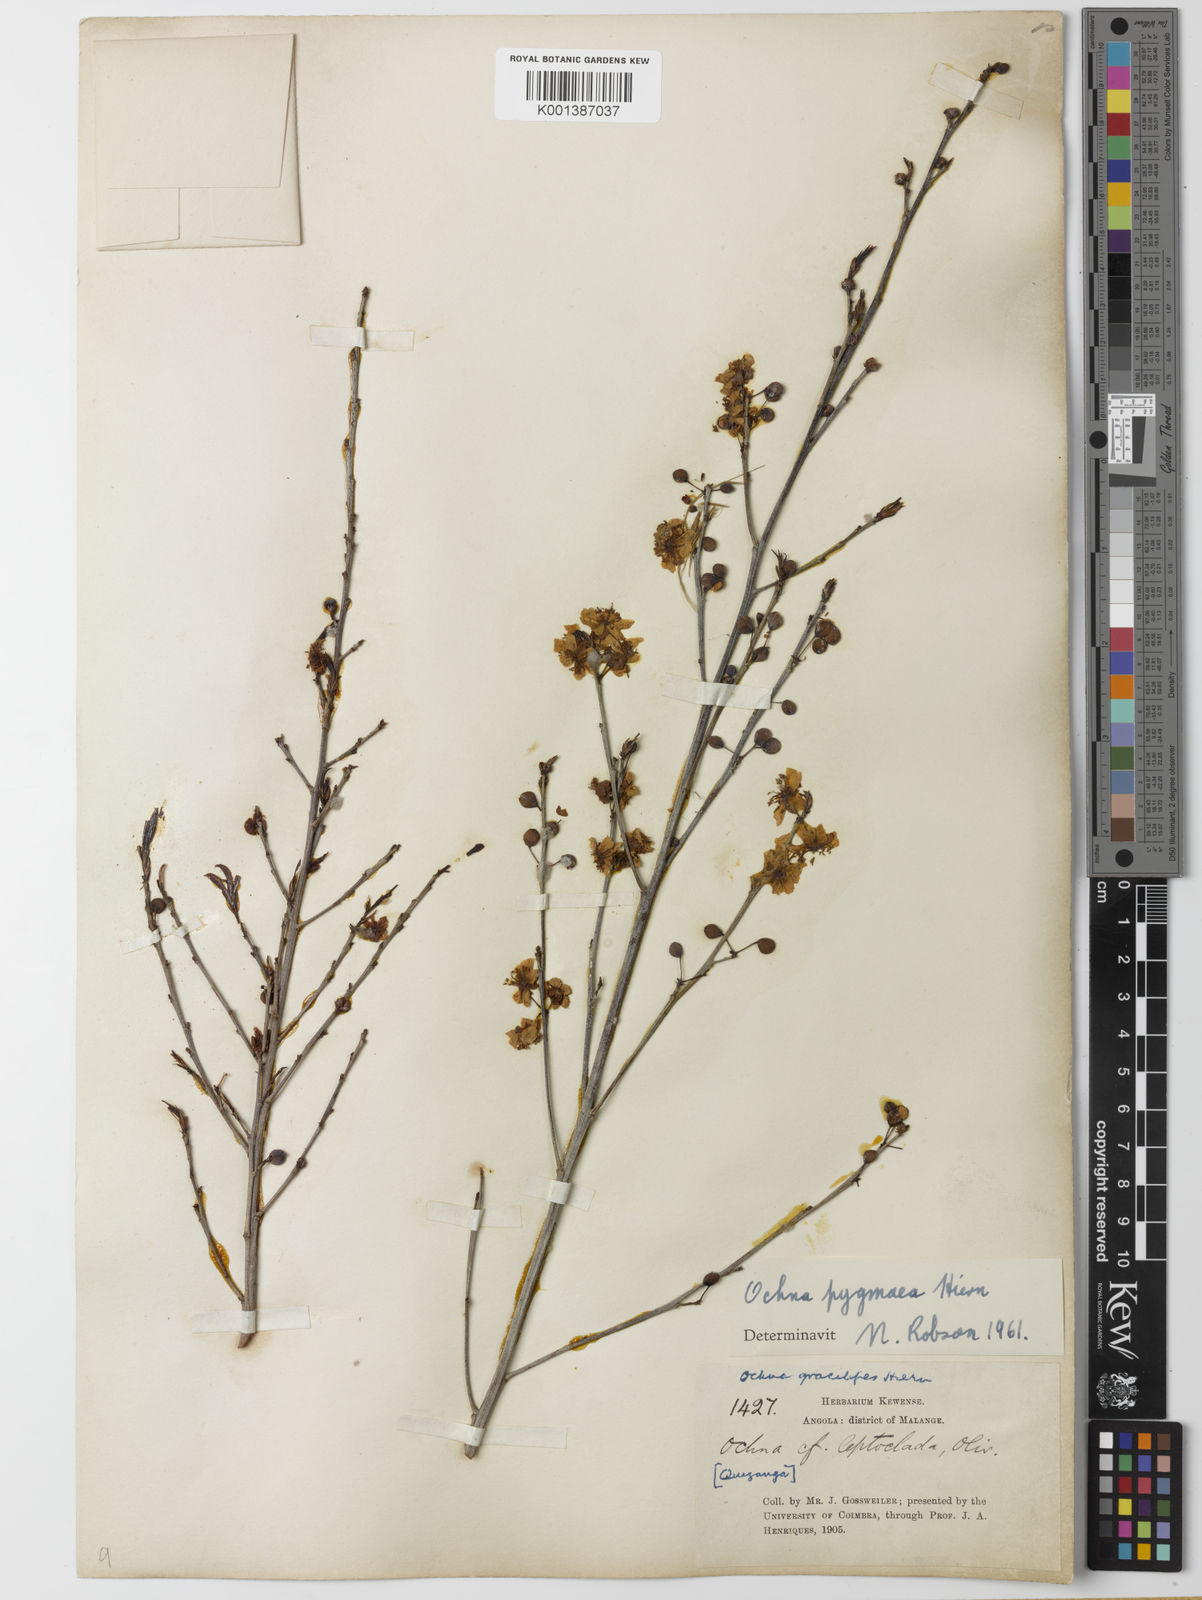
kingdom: Plantae
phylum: Tracheophyta
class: Magnoliopsida
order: Malpighiales
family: Ochnaceae
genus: Ochna
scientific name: Ochna pygmaea
